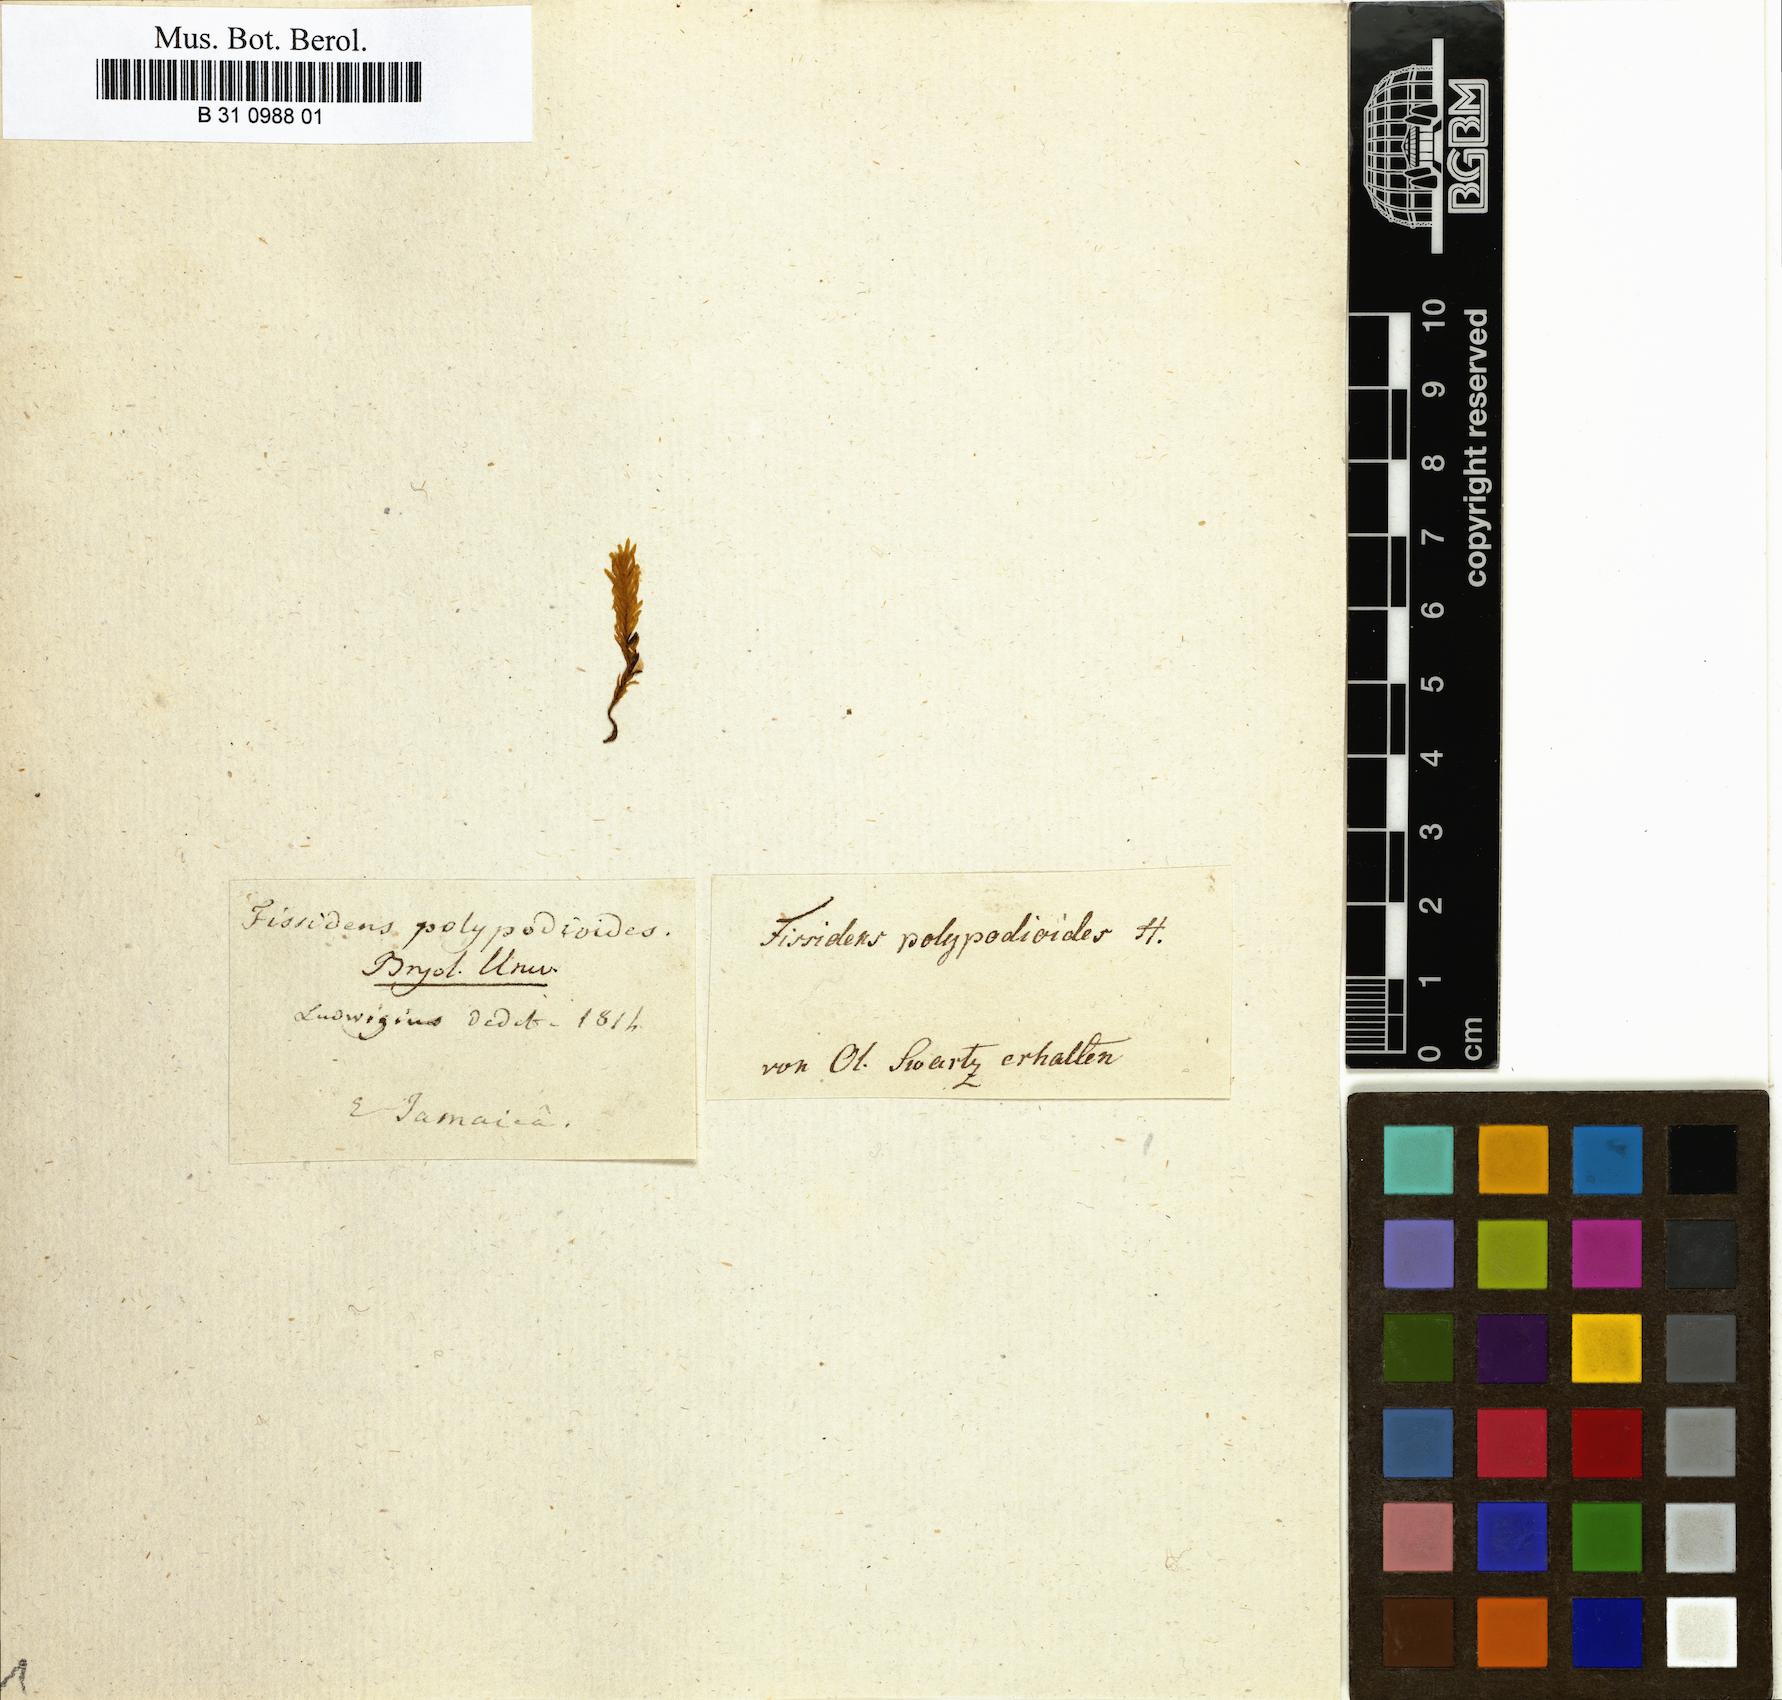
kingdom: Plantae
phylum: Bryophyta
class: Bryopsida
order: Dicranales
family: Fissidentaceae
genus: Fissidens
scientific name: Fissidens polypodioides
